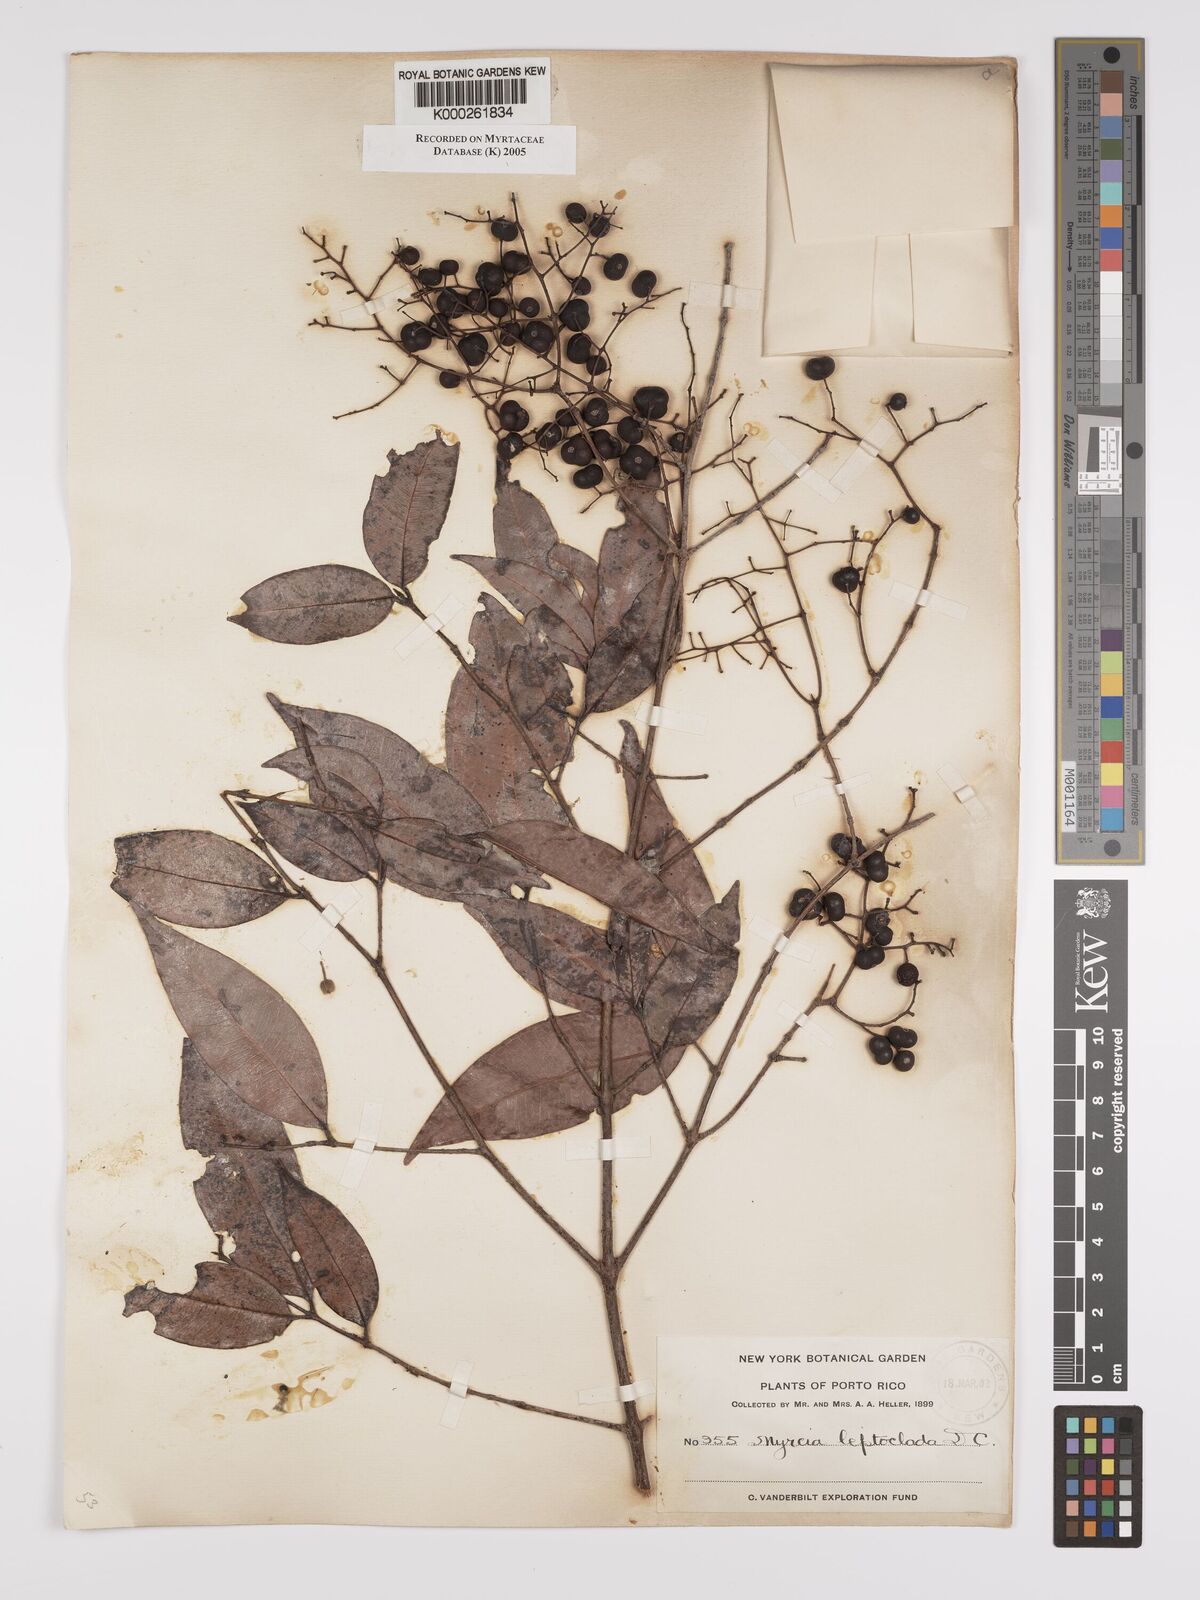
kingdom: Plantae
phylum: Tracheophyta
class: Magnoliopsida
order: Myrtales
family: Myrtaceae
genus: Myrcia
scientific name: Myrcia amazonica
